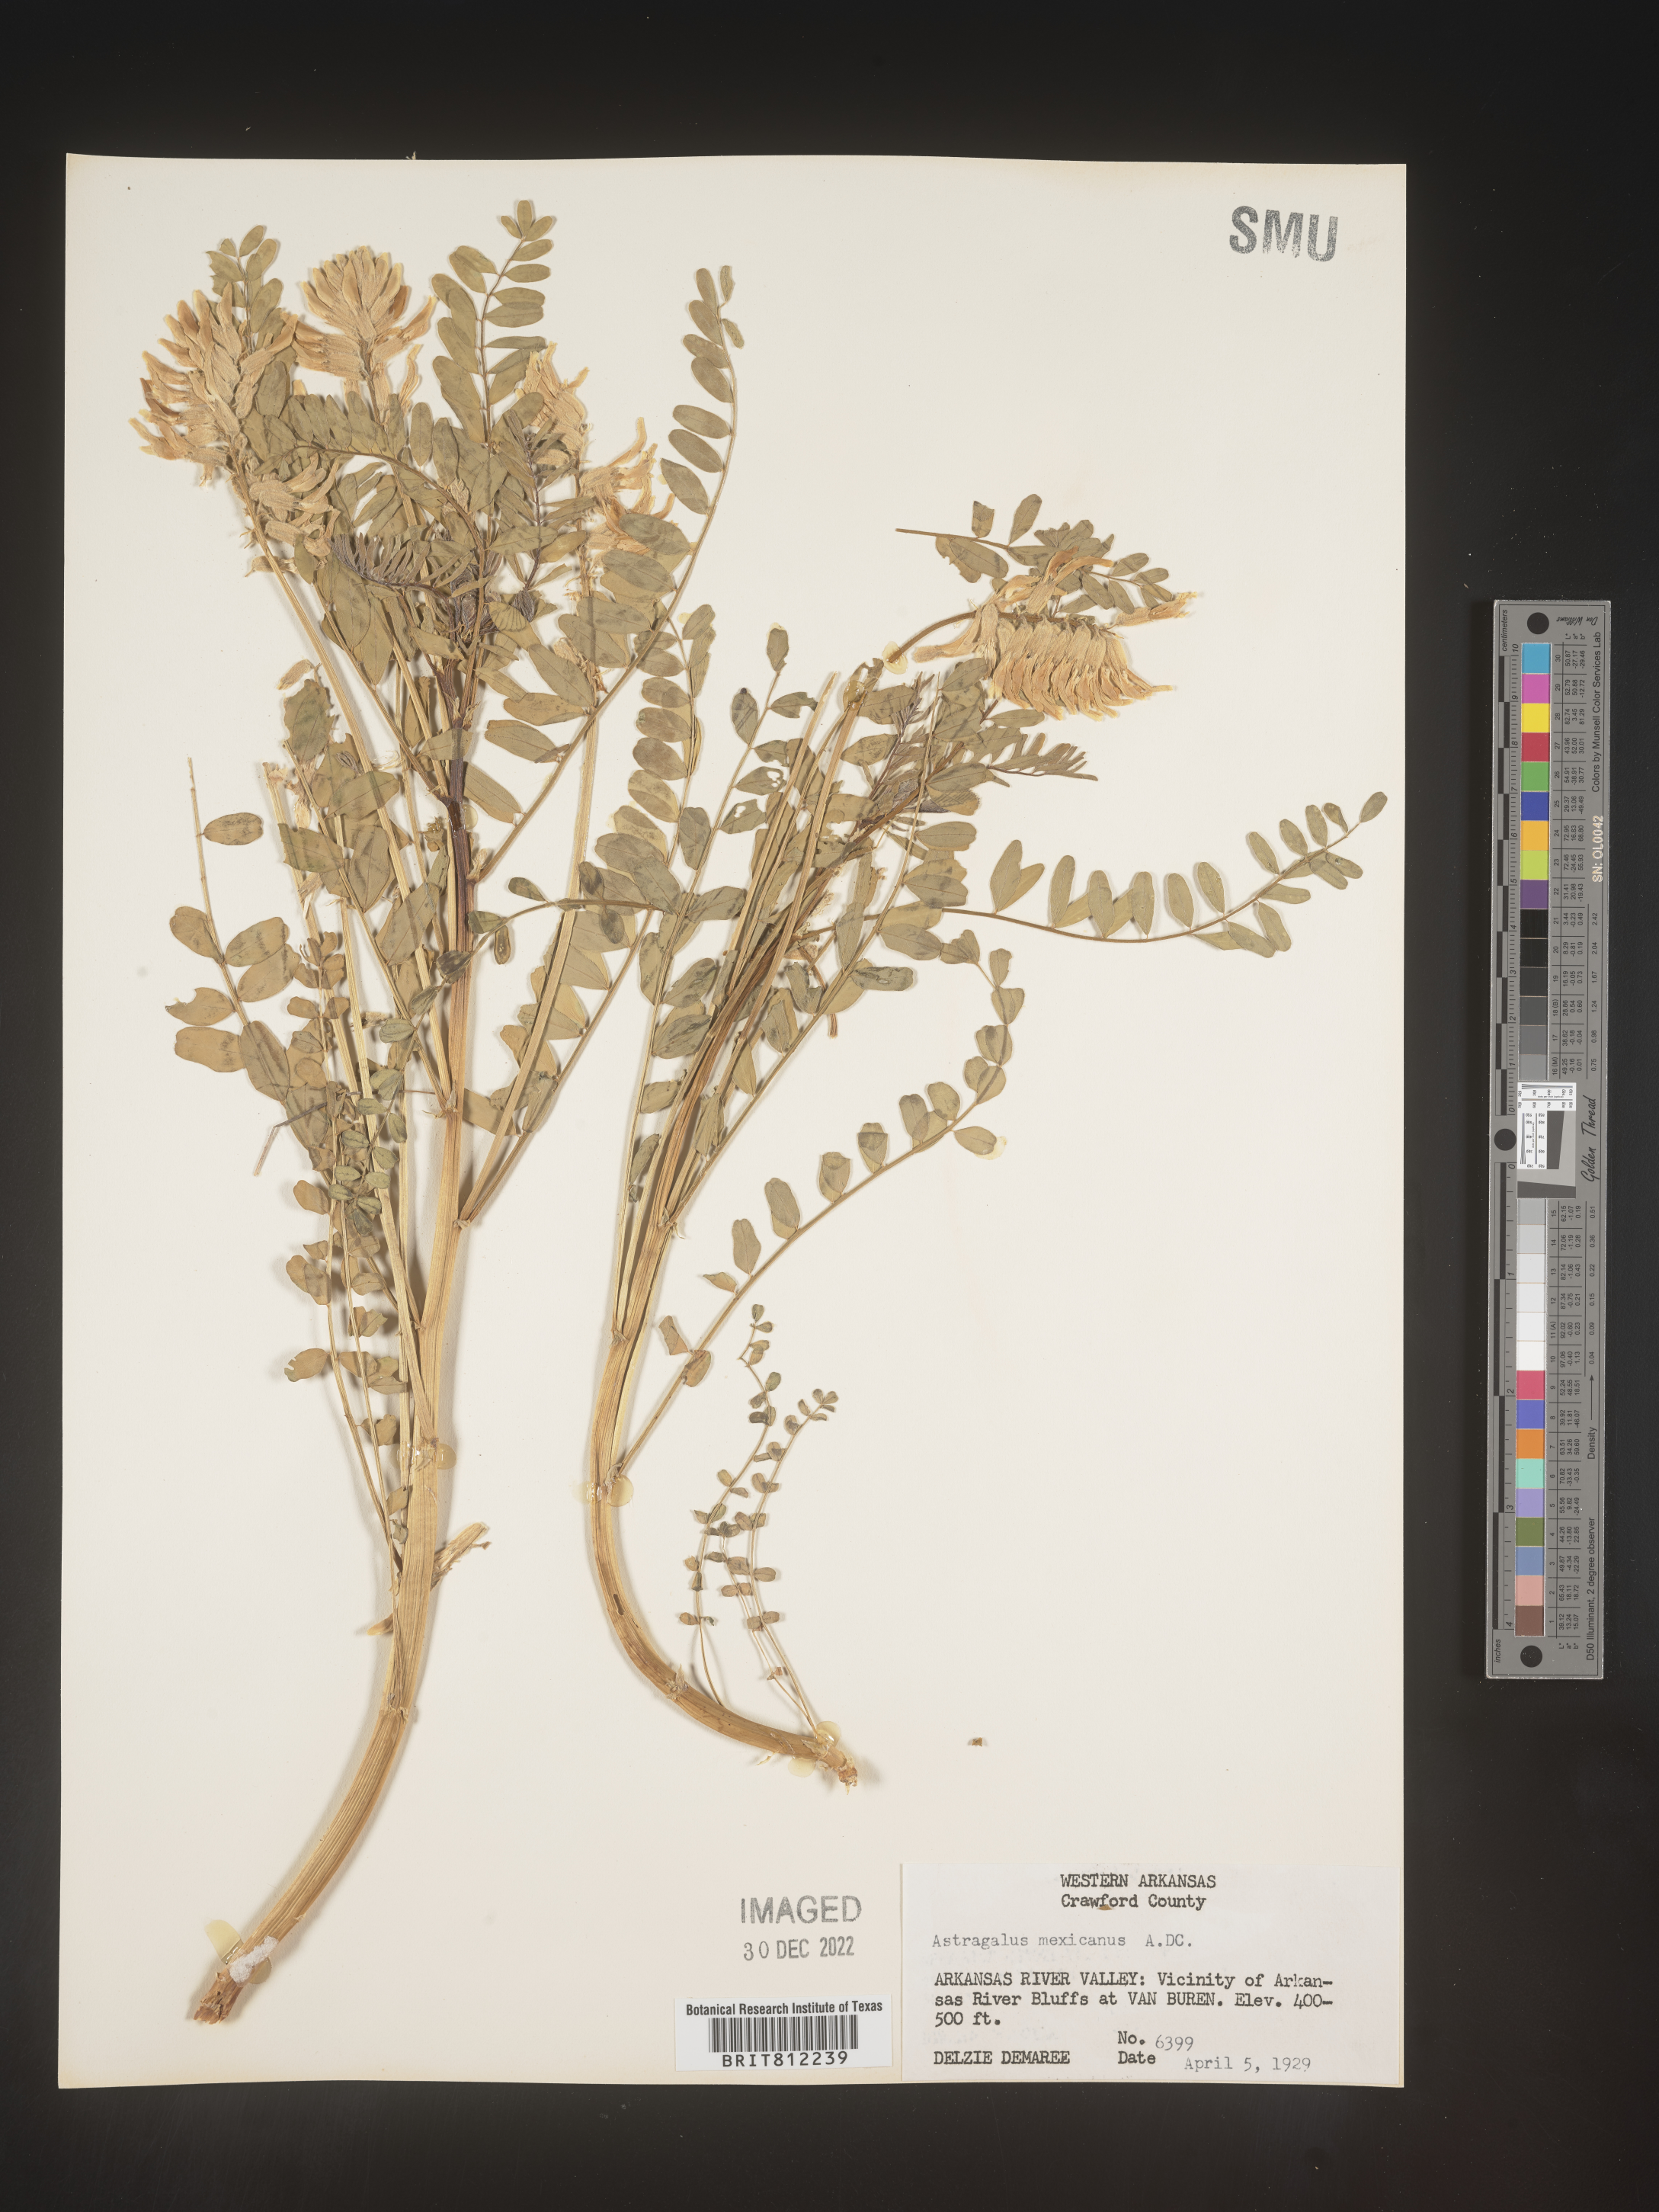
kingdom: Plantae
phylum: Tracheophyta
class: Magnoliopsida
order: Fabales
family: Fabaceae
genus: Astragalus
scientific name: Astragalus
